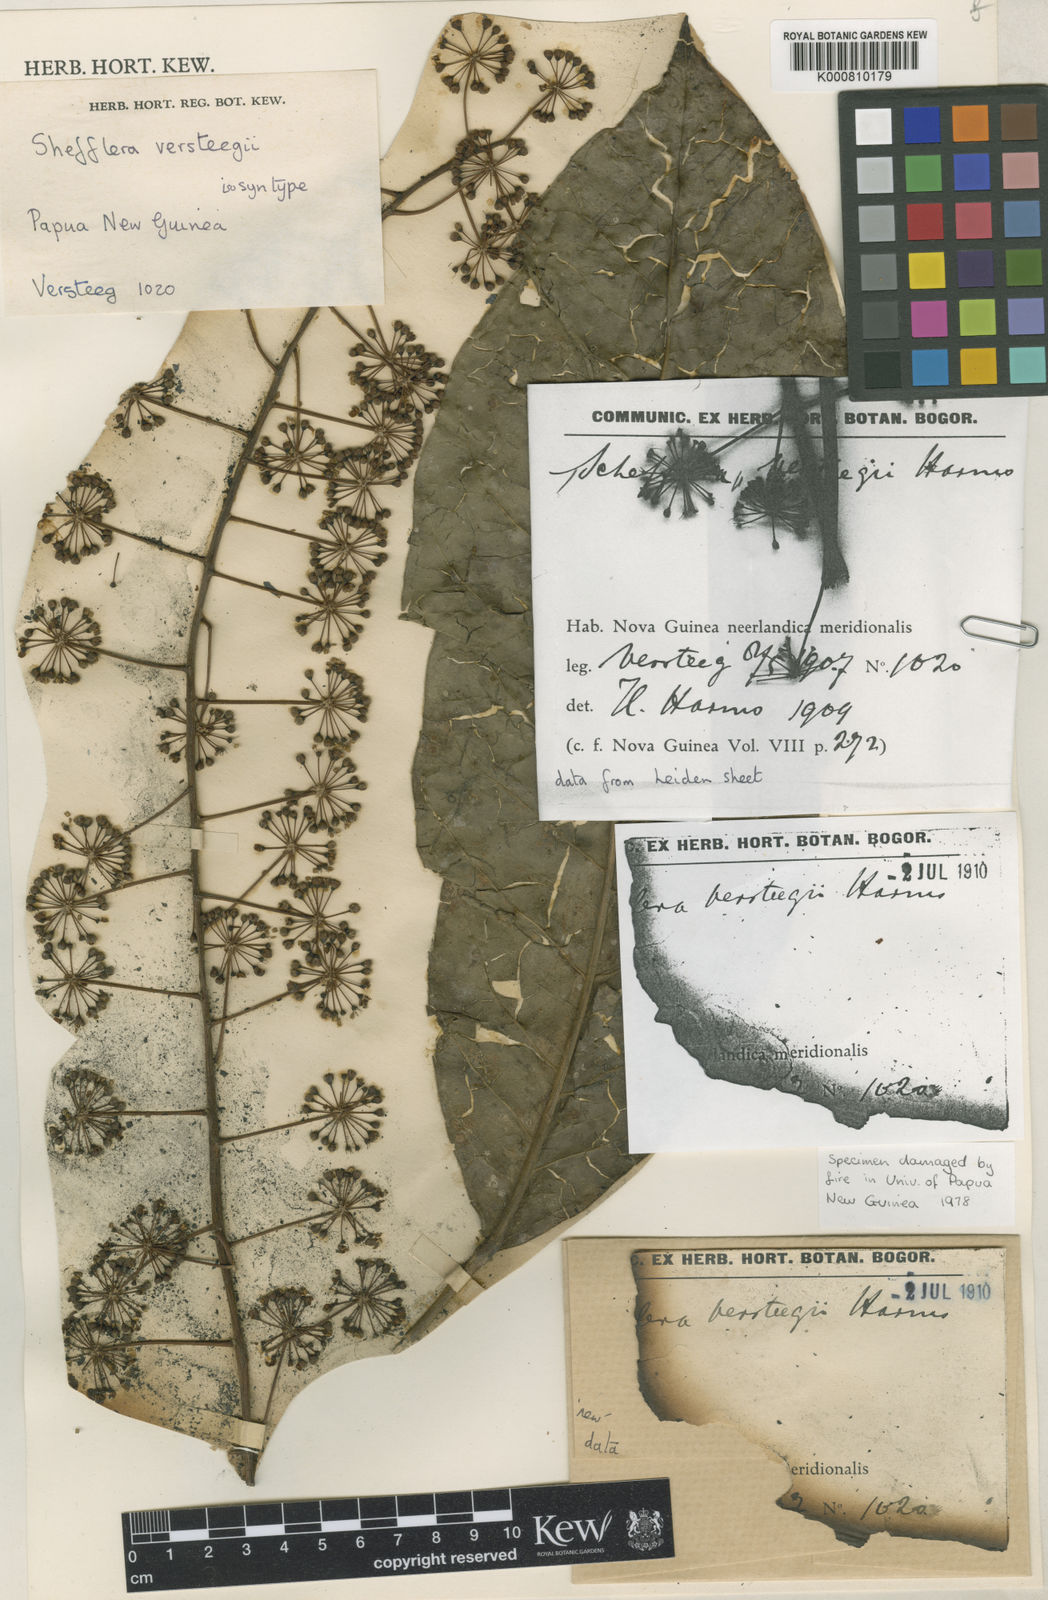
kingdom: Plantae
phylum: Tracheophyta
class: Magnoliopsida
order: Apiales
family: Araliaceae
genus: Heptapleurum
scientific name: Heptapleurum versteegii
